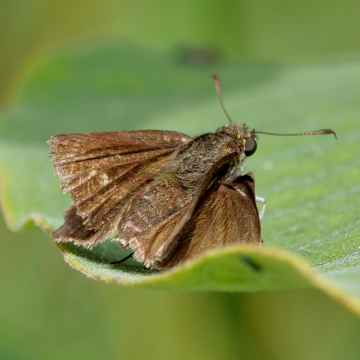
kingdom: Animalia
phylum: Arthropoda
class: Insecta
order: Lepidoptera
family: Hesperiidae
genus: Euphyes
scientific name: Euphyes vestris
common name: Dun Skipper
